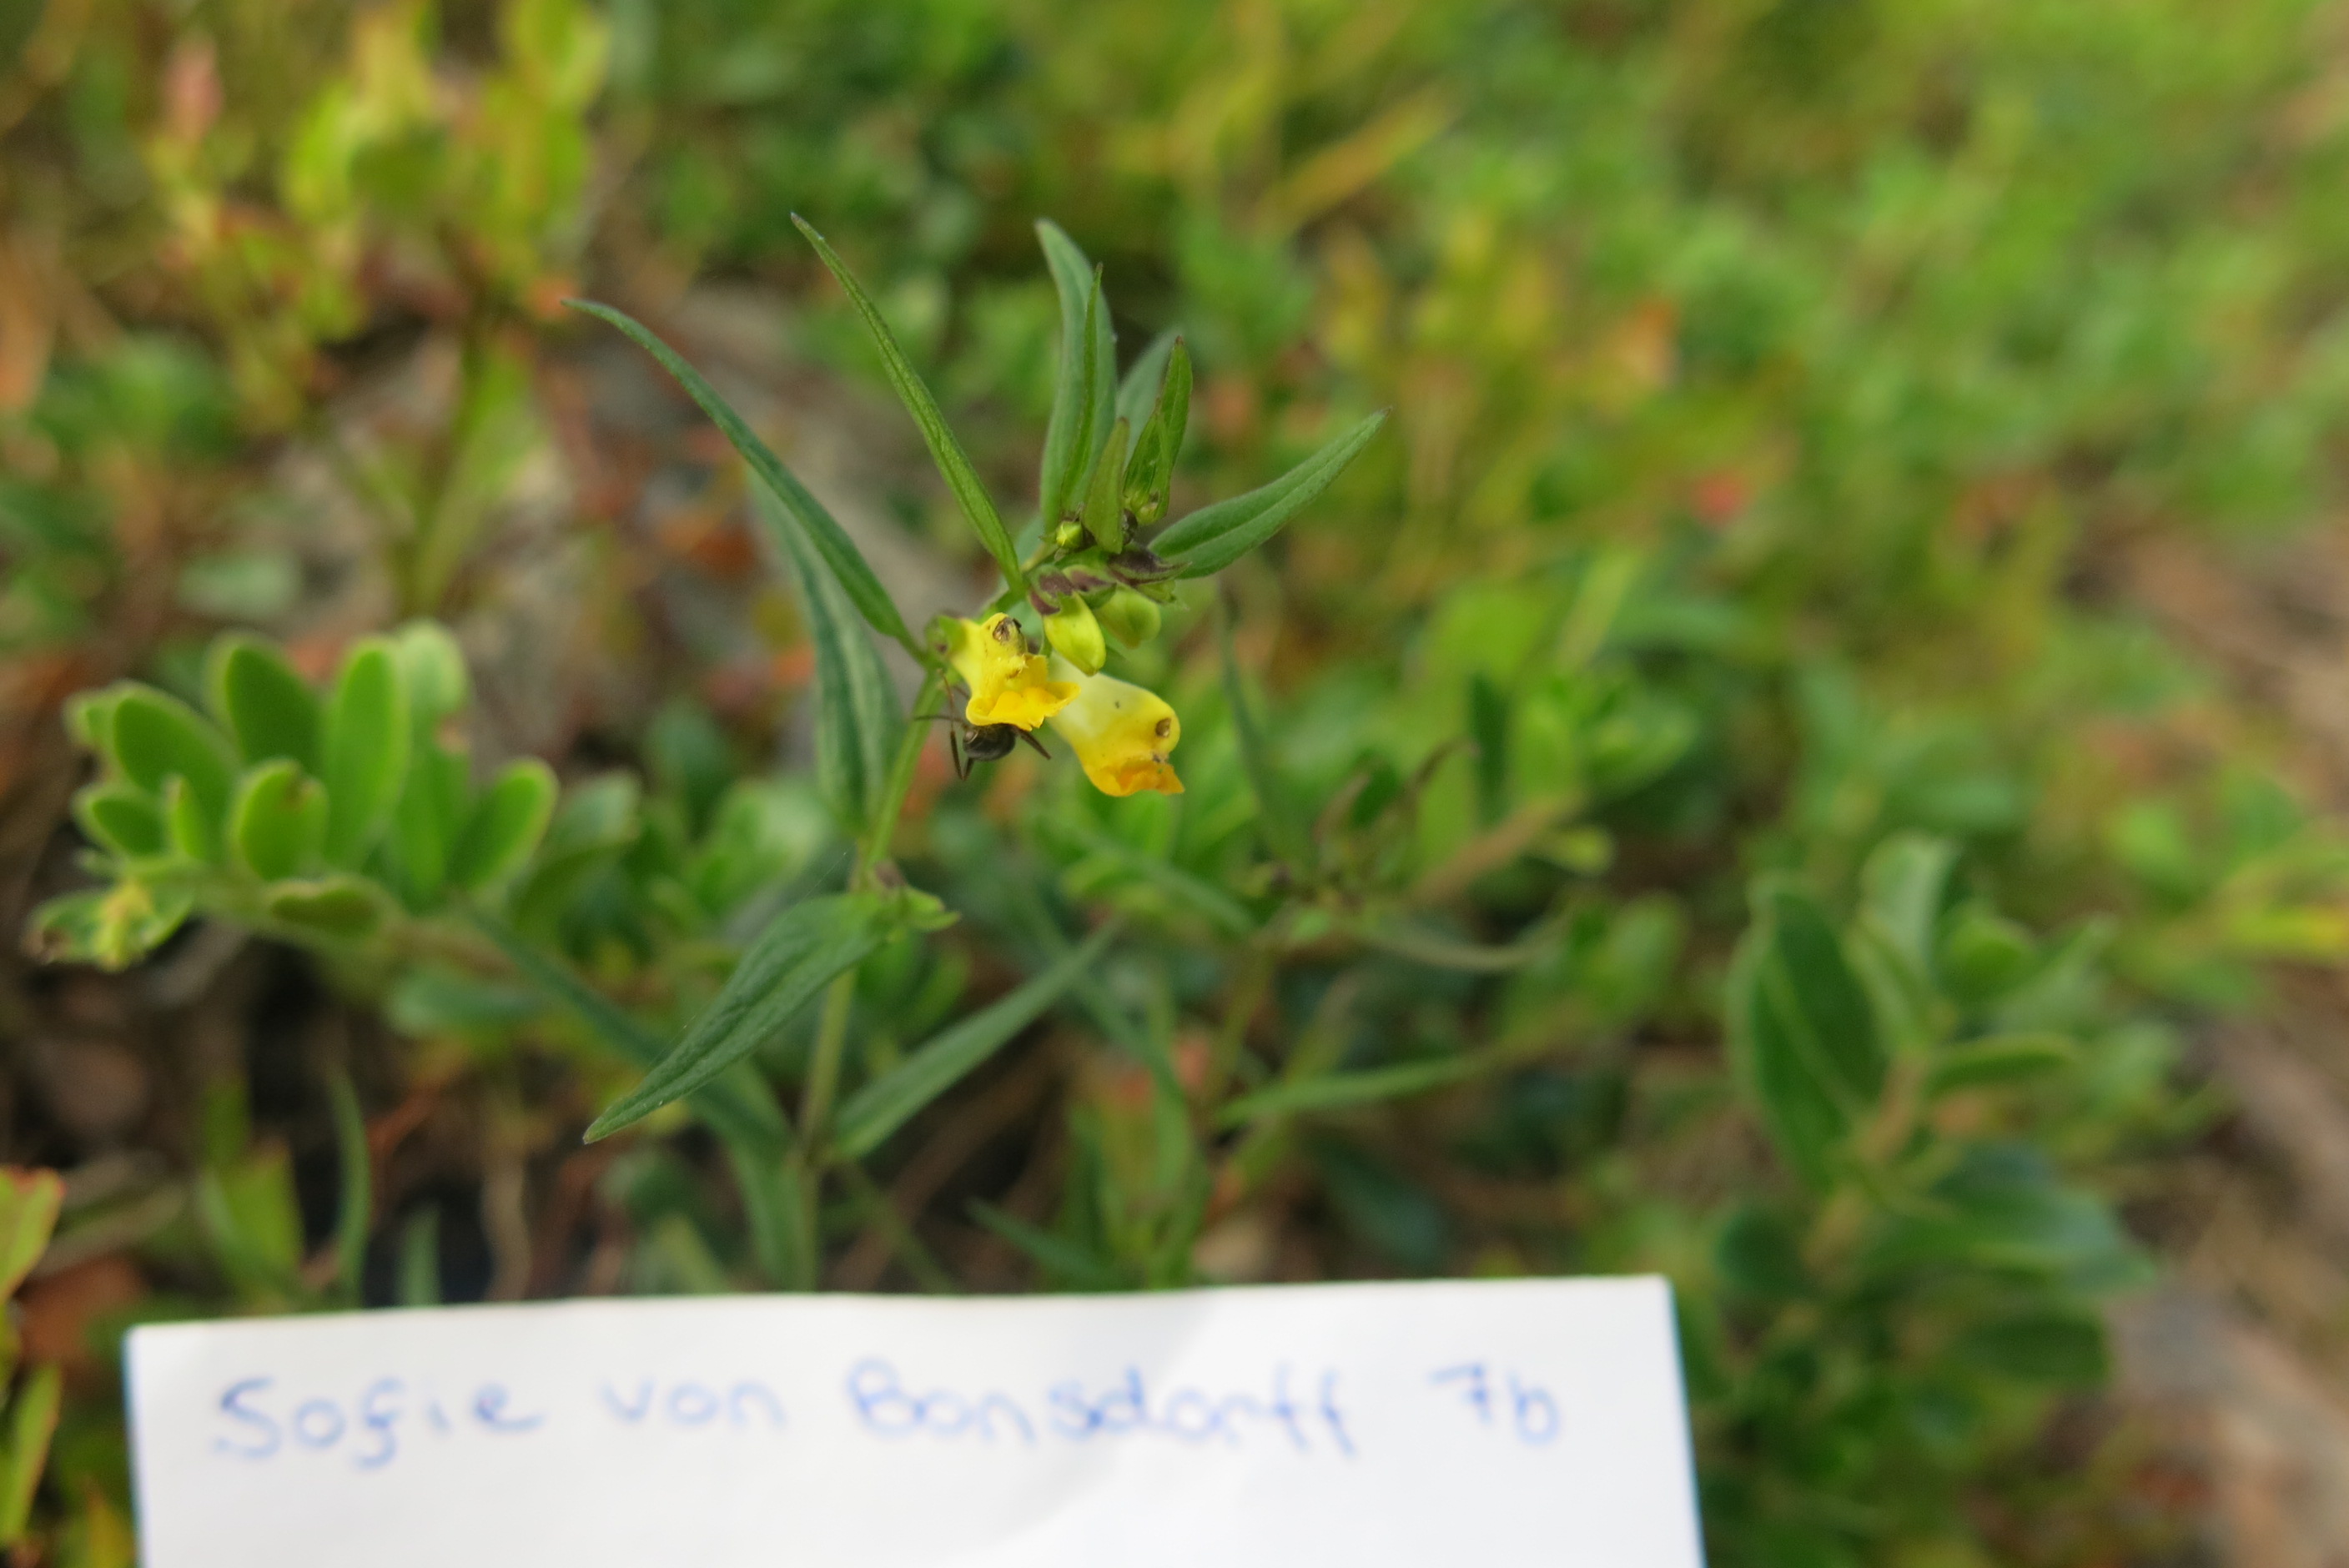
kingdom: Plantae
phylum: Tracheophyta
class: Magnoliopsida
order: Lamiales
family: Orobanchaceae
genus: Melampyrum
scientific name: Melampyrum sylvaticum
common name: Small cow-wheat
